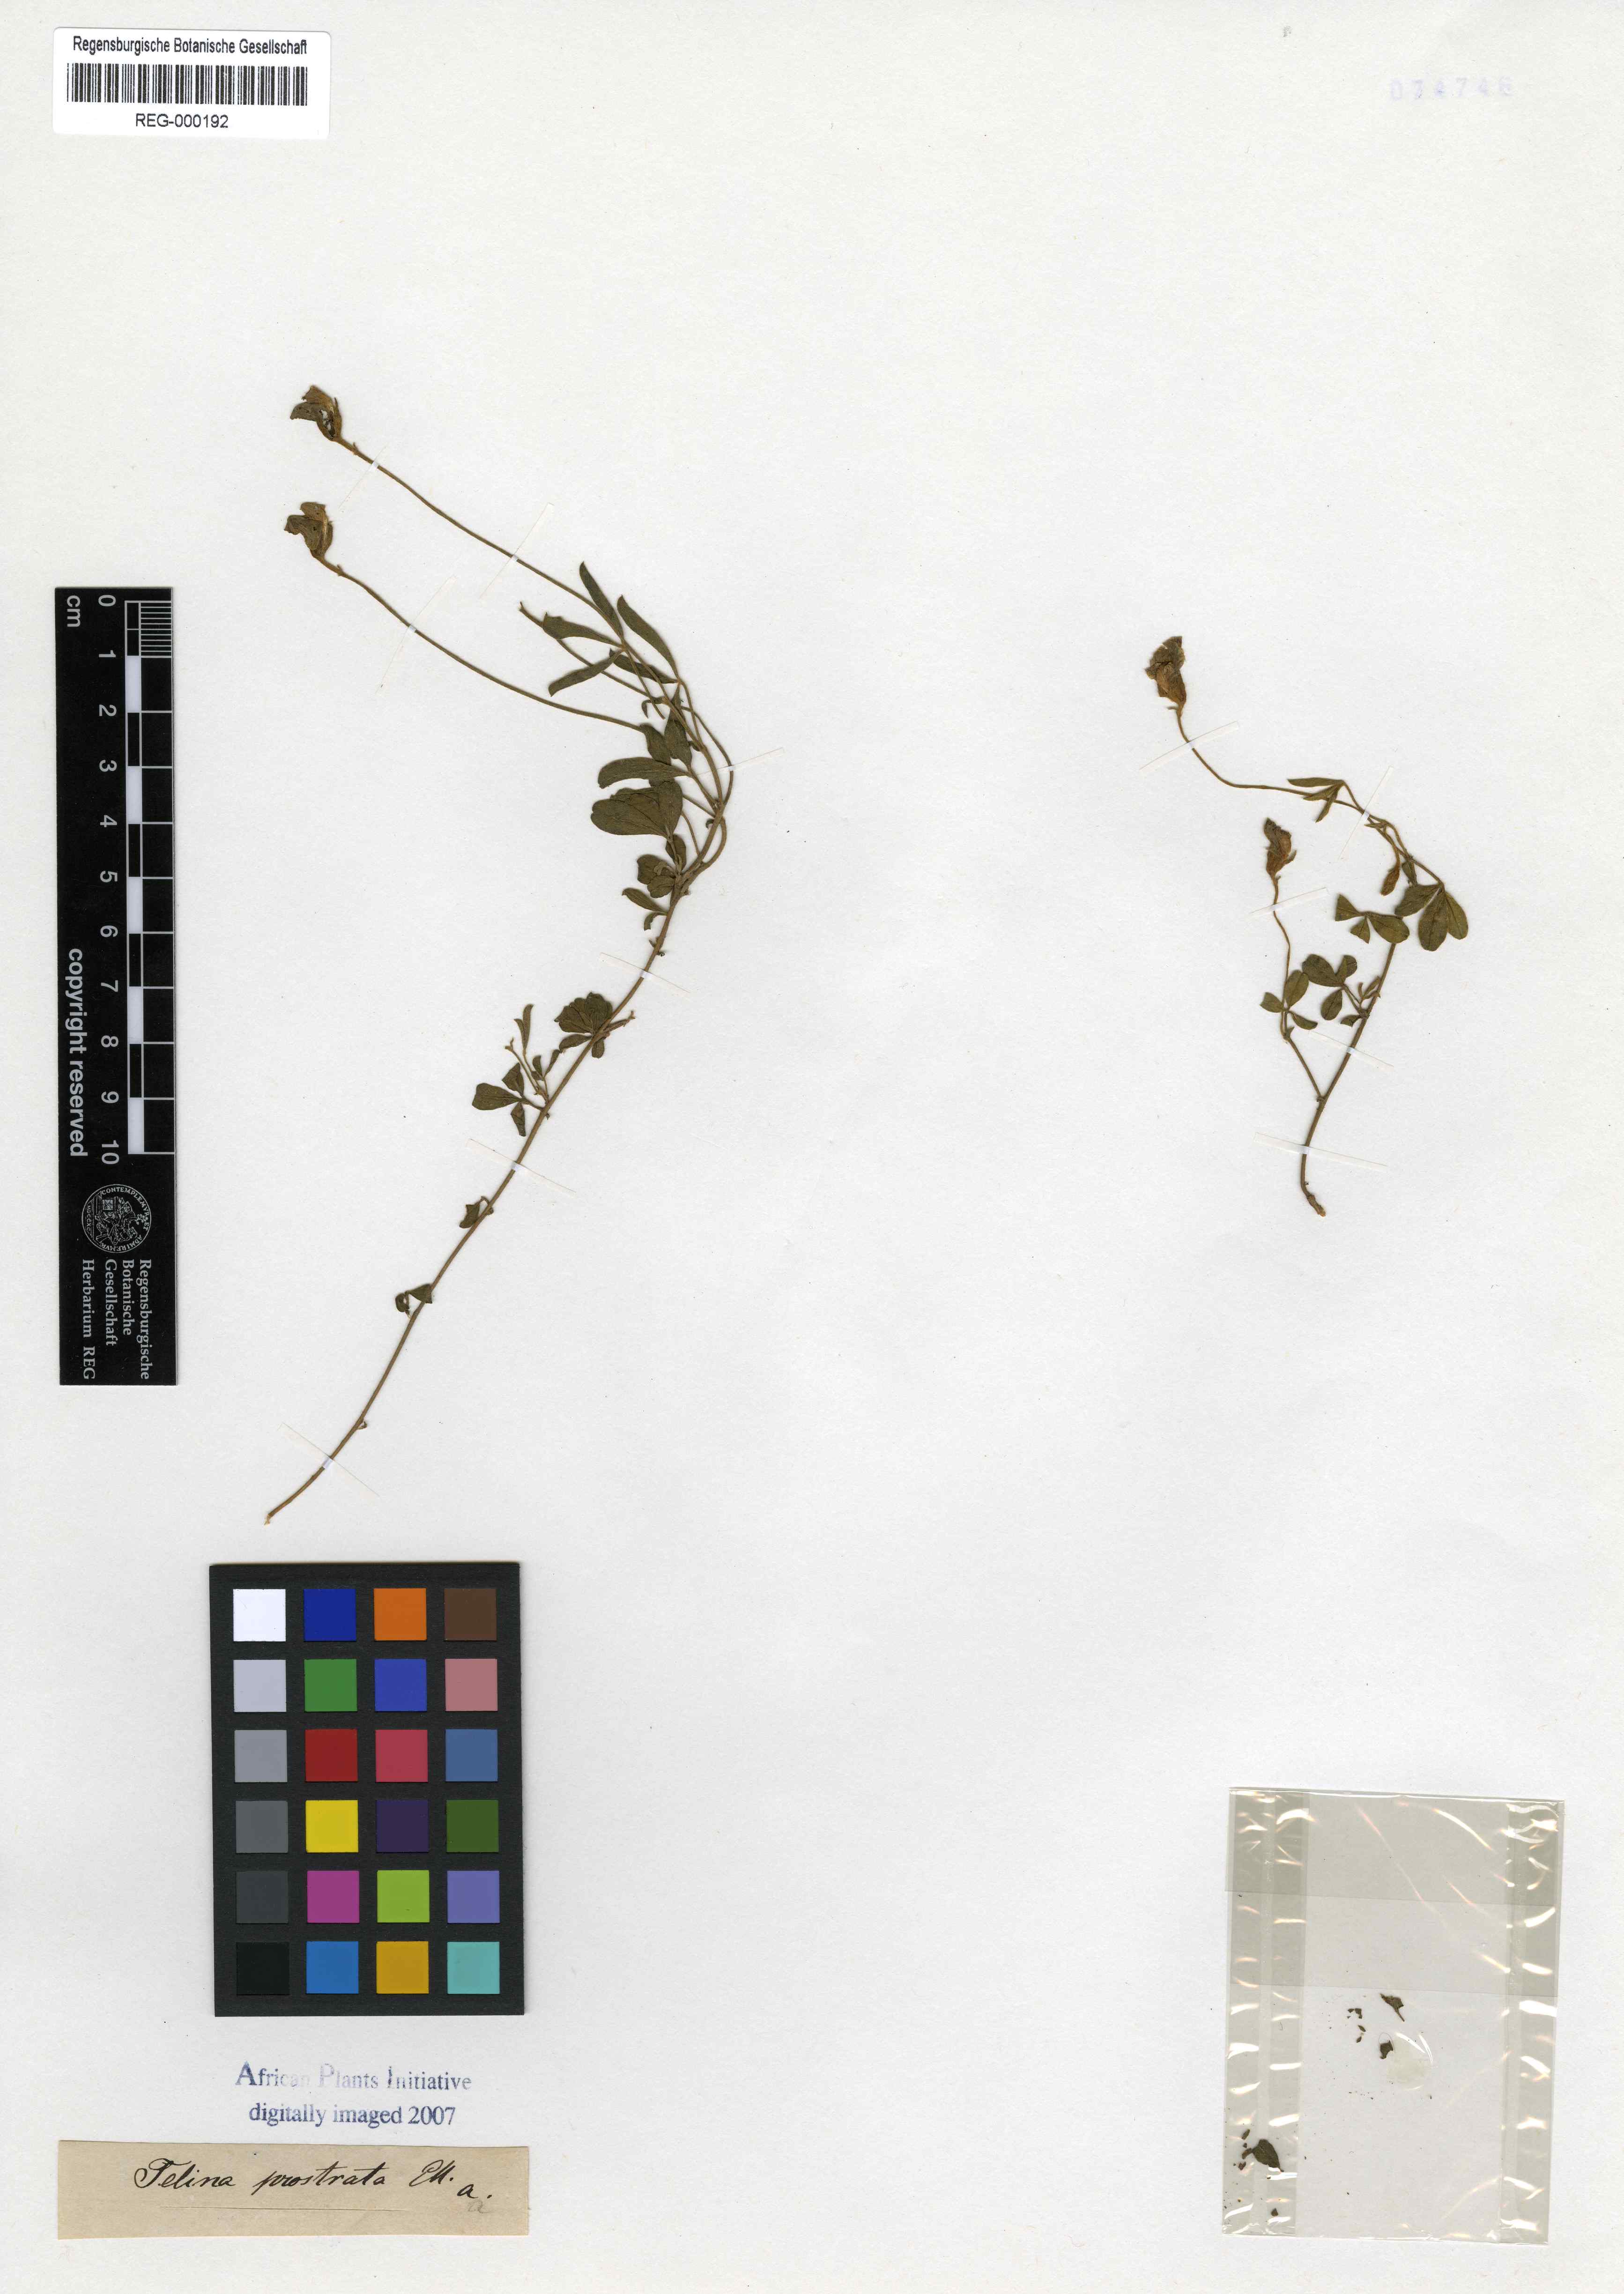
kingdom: Plantae
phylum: Tracheophyta
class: Magnoliopsida
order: Fabales
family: Fabaceae
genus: Lotononis
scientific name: Lotononis prostrata
